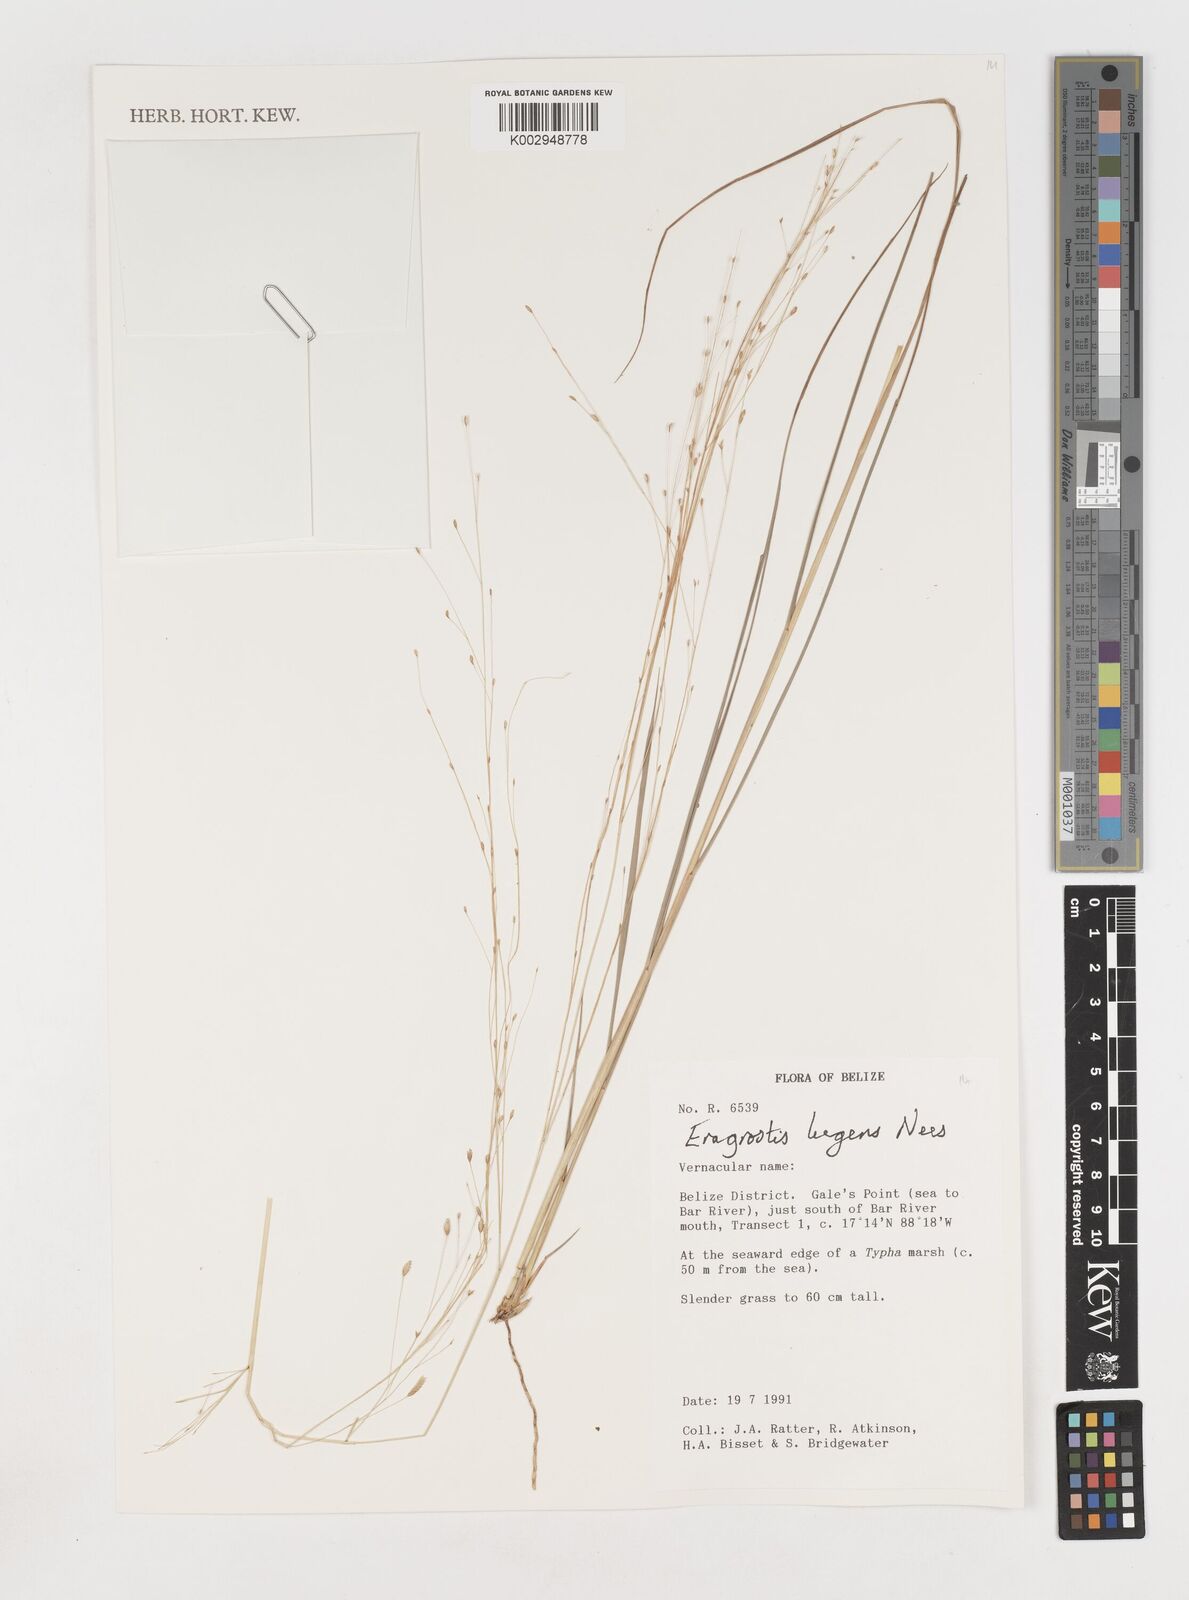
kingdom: Plantae
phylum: Tracheophyta
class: Liliopsida
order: Poales
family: Poaceae
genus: Eragrostis
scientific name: Eragrostis
